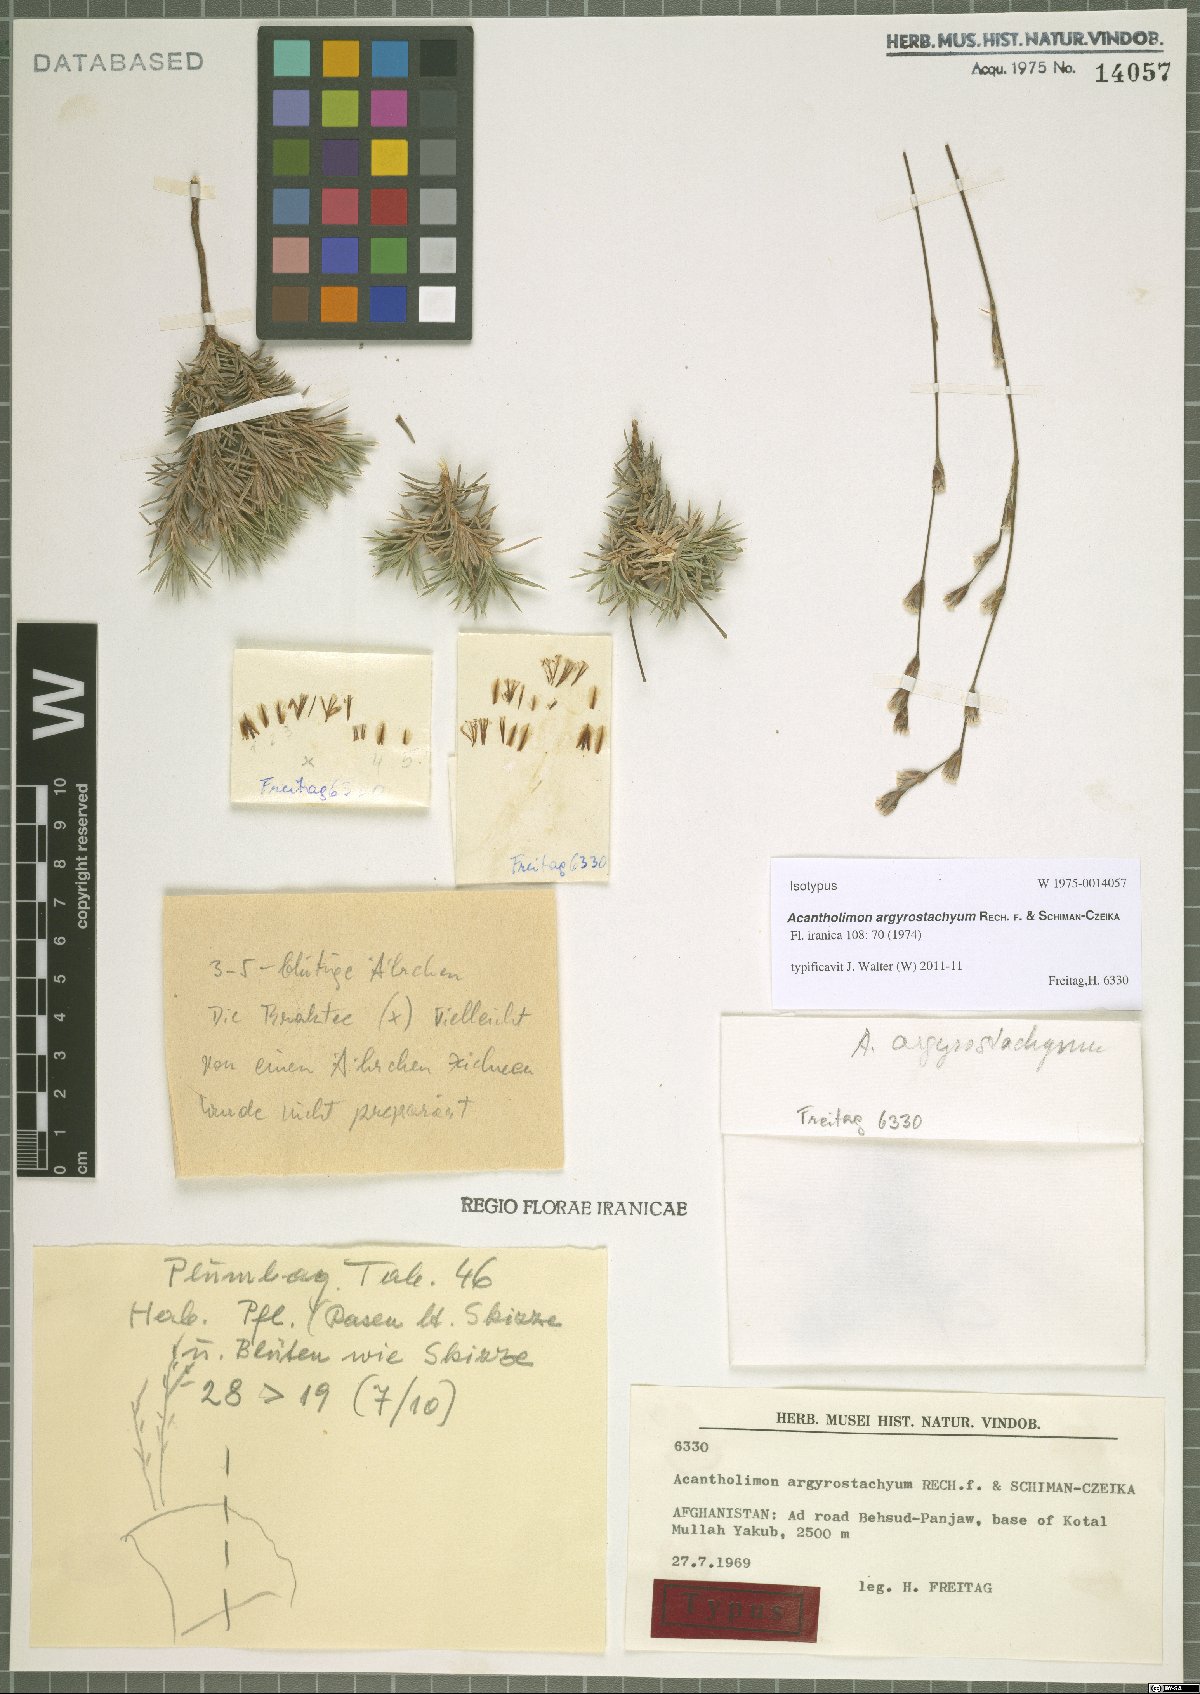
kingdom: Plantae
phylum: Tracheophyta
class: Magnoliopsida
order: Caryophyllales
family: Plumbaginaceae
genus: Acantholimon
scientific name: Acantholimon argyrostachyum
